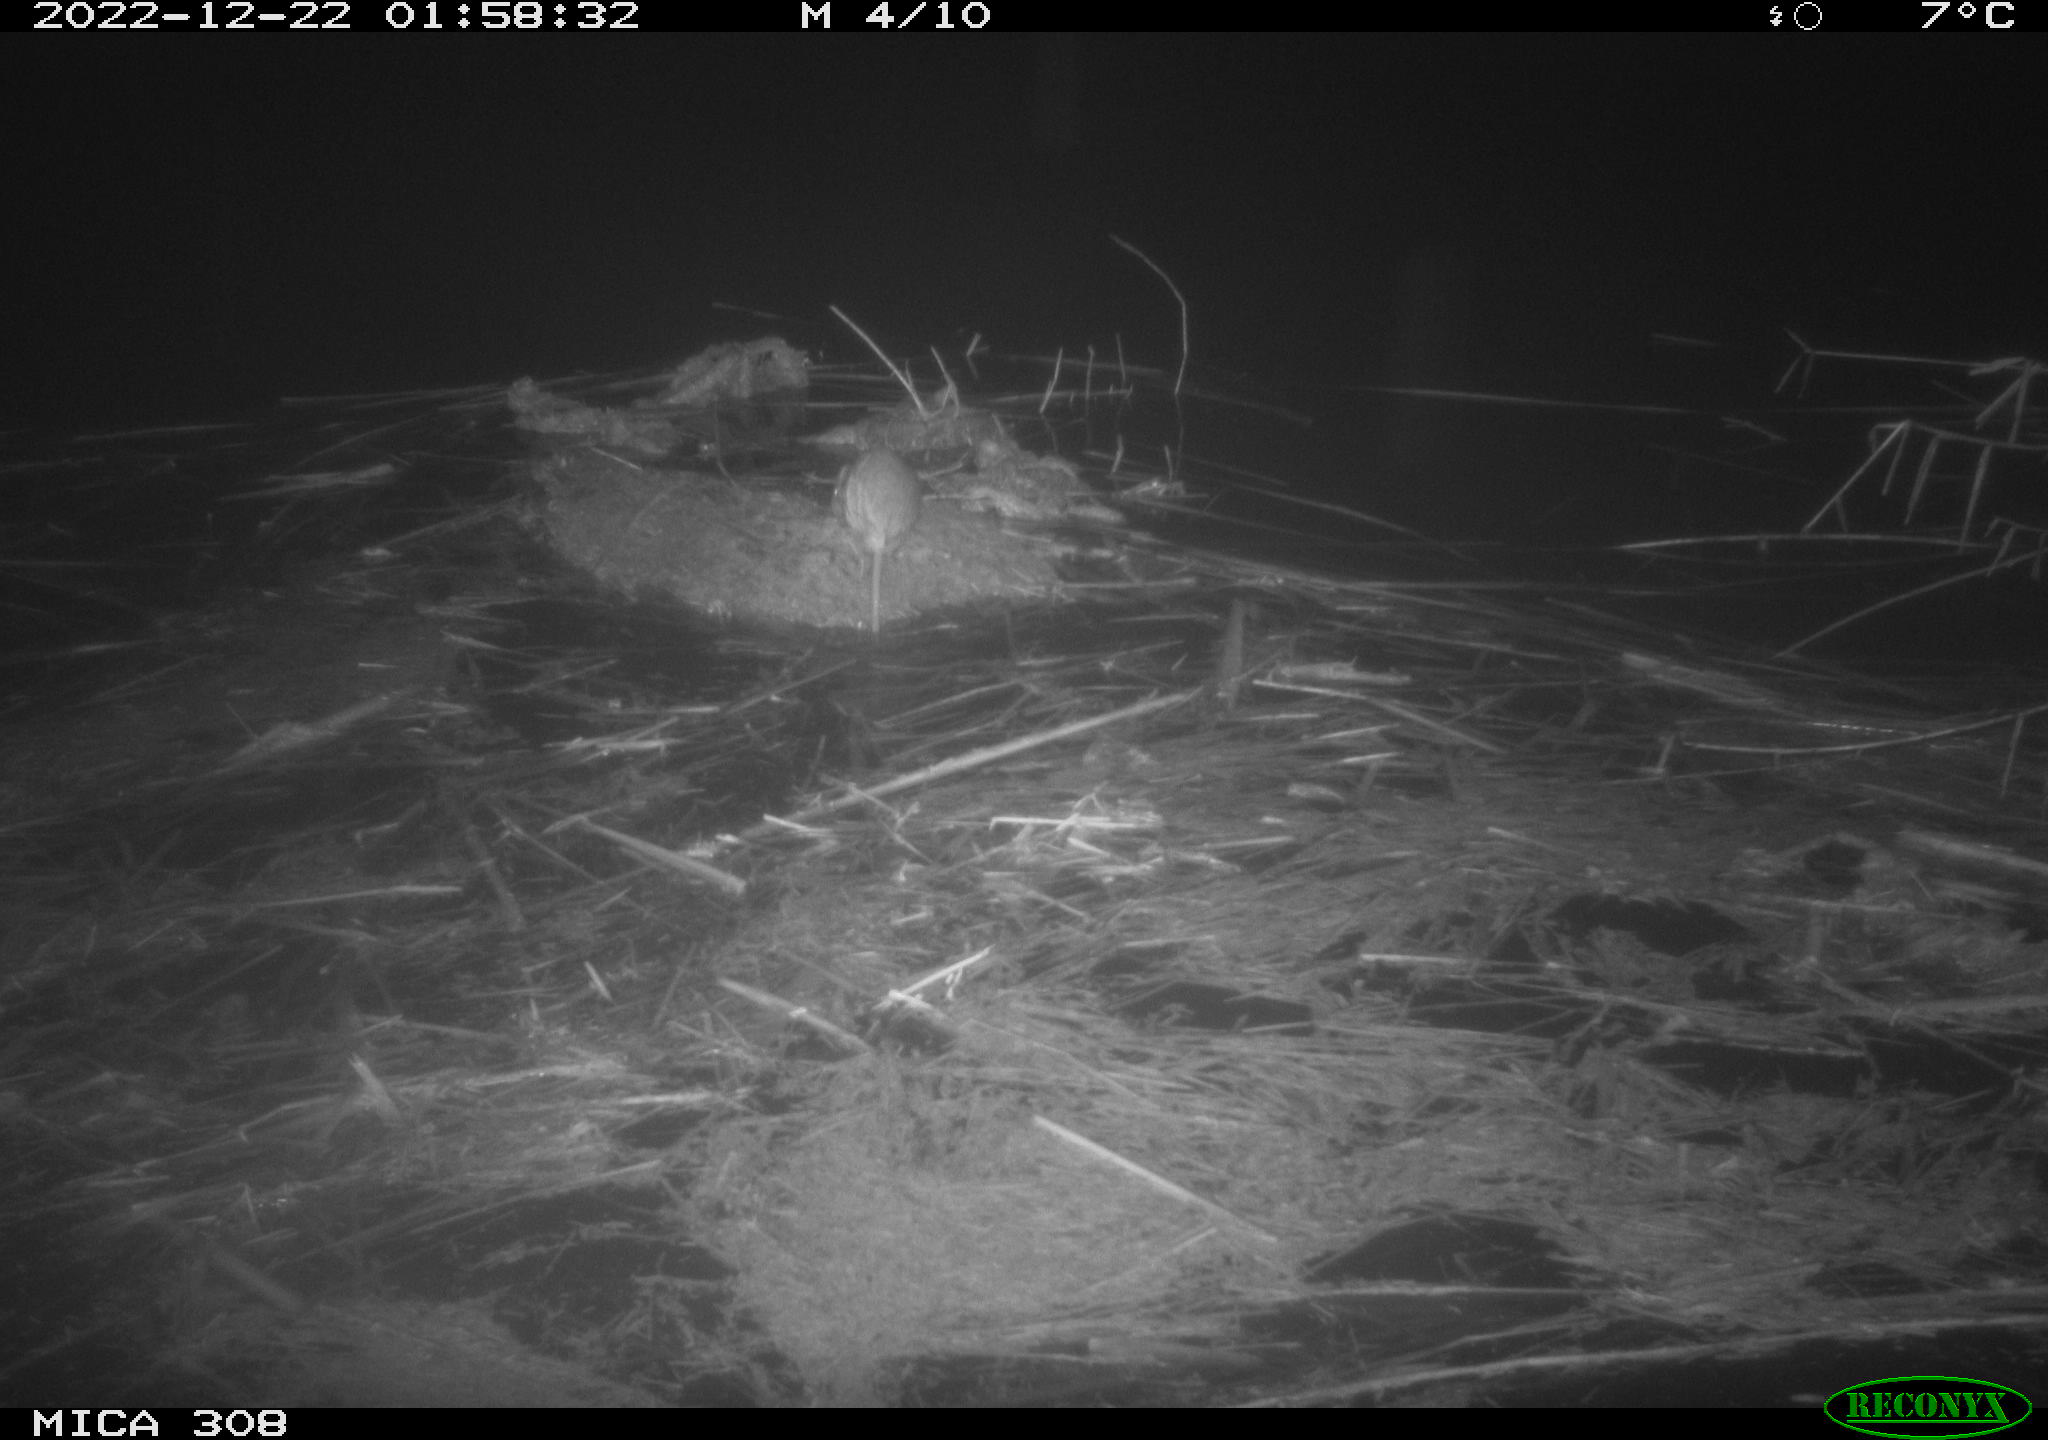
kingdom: Animalia
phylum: Chordata
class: Mammalia
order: Rodentia
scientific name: Rodentia
